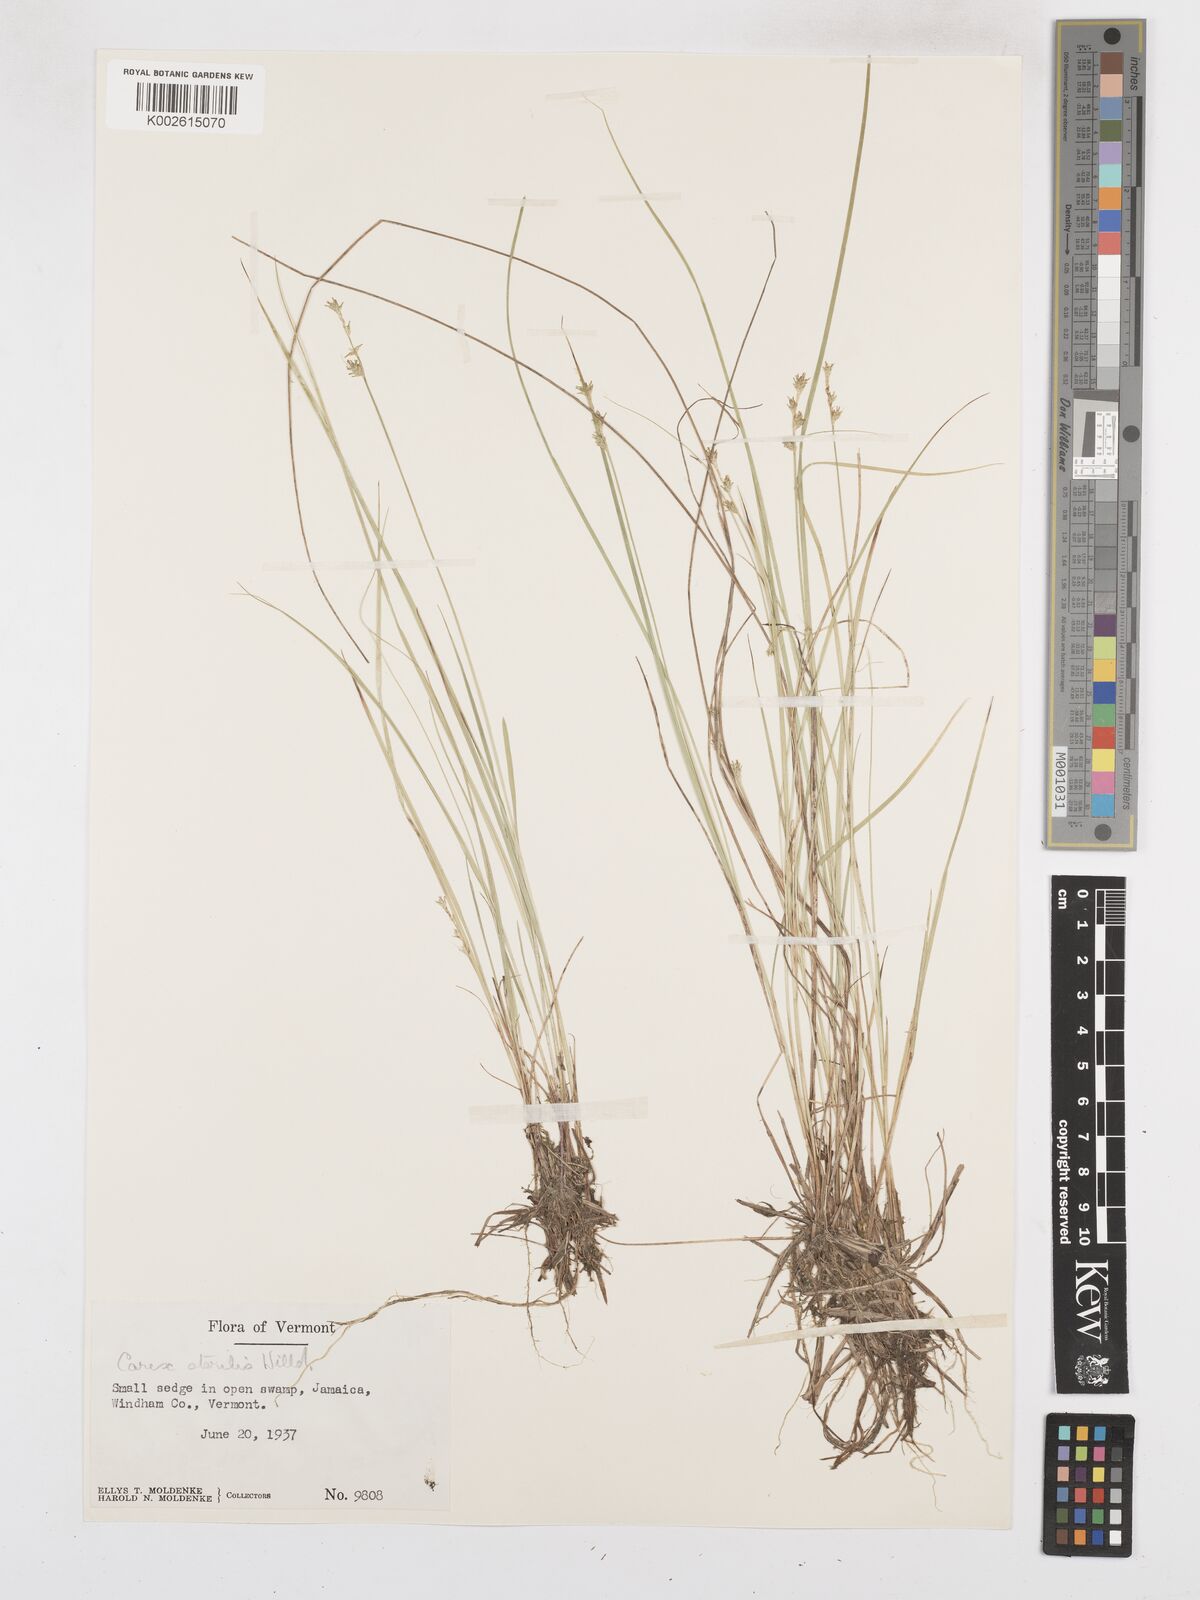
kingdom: Plantae
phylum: Tracheophyta
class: Liliopsida
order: Poales
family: Cyperaceae
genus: Carex
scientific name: Carex sterilis
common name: Dioecious sedge
